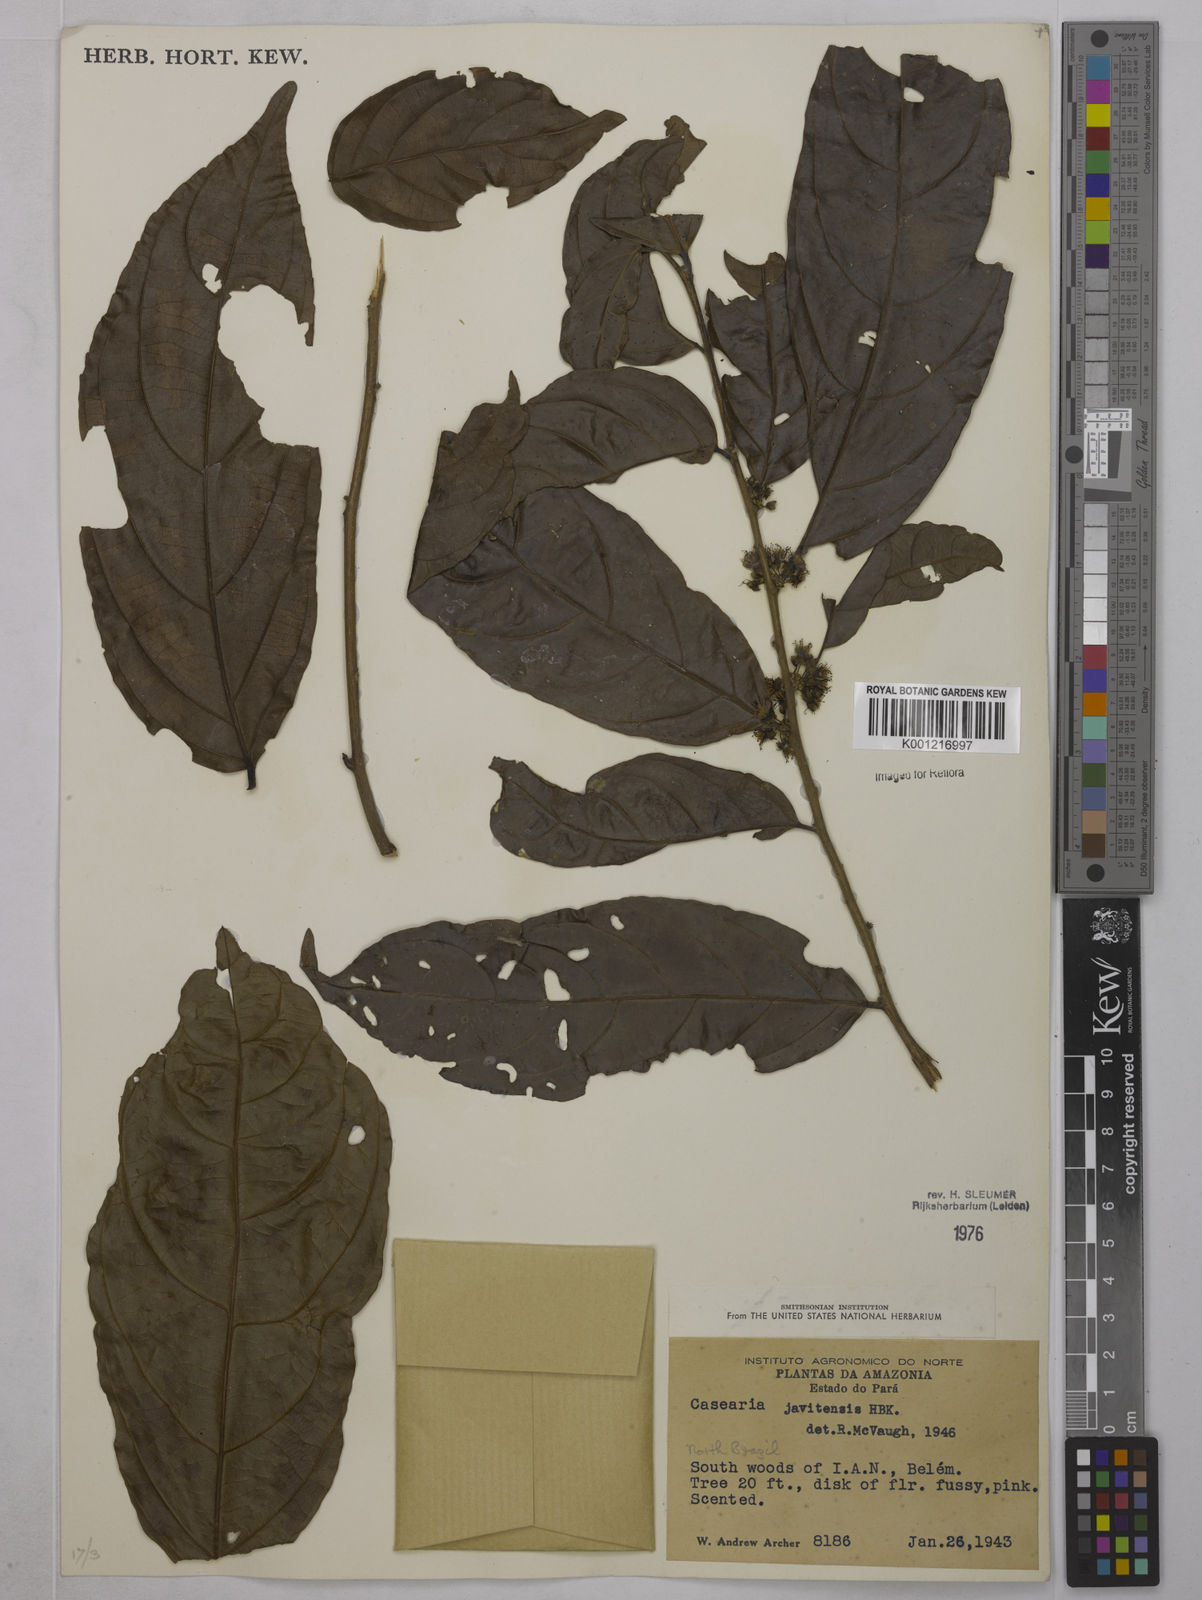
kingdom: Plantae
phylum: Tracheophyta
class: Magnoliopsida
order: Malpighiales
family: Salicaceae
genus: Piparea
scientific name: Piparea multiflora
